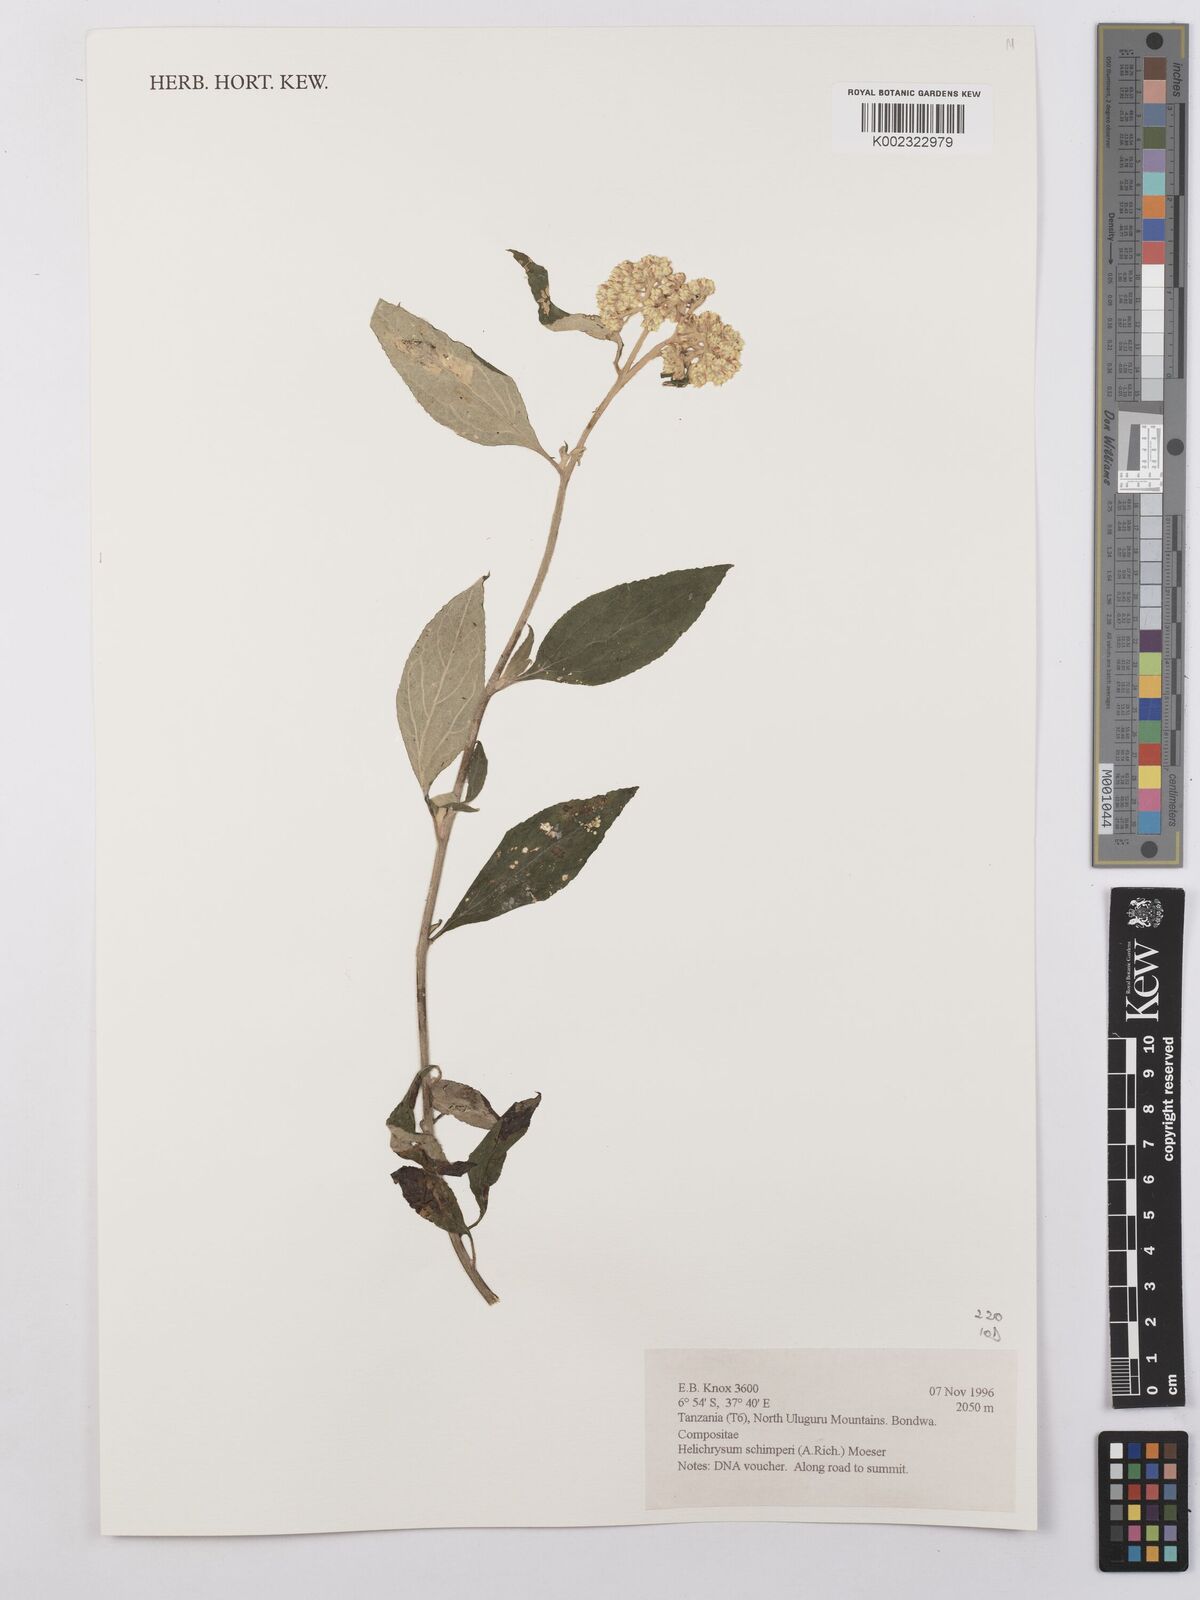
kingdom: Plantae
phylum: Tracheophyta
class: Magnoliopsida
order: Asterales
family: Asteraceae
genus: Helichrysum
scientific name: Helichrysum schimperi
